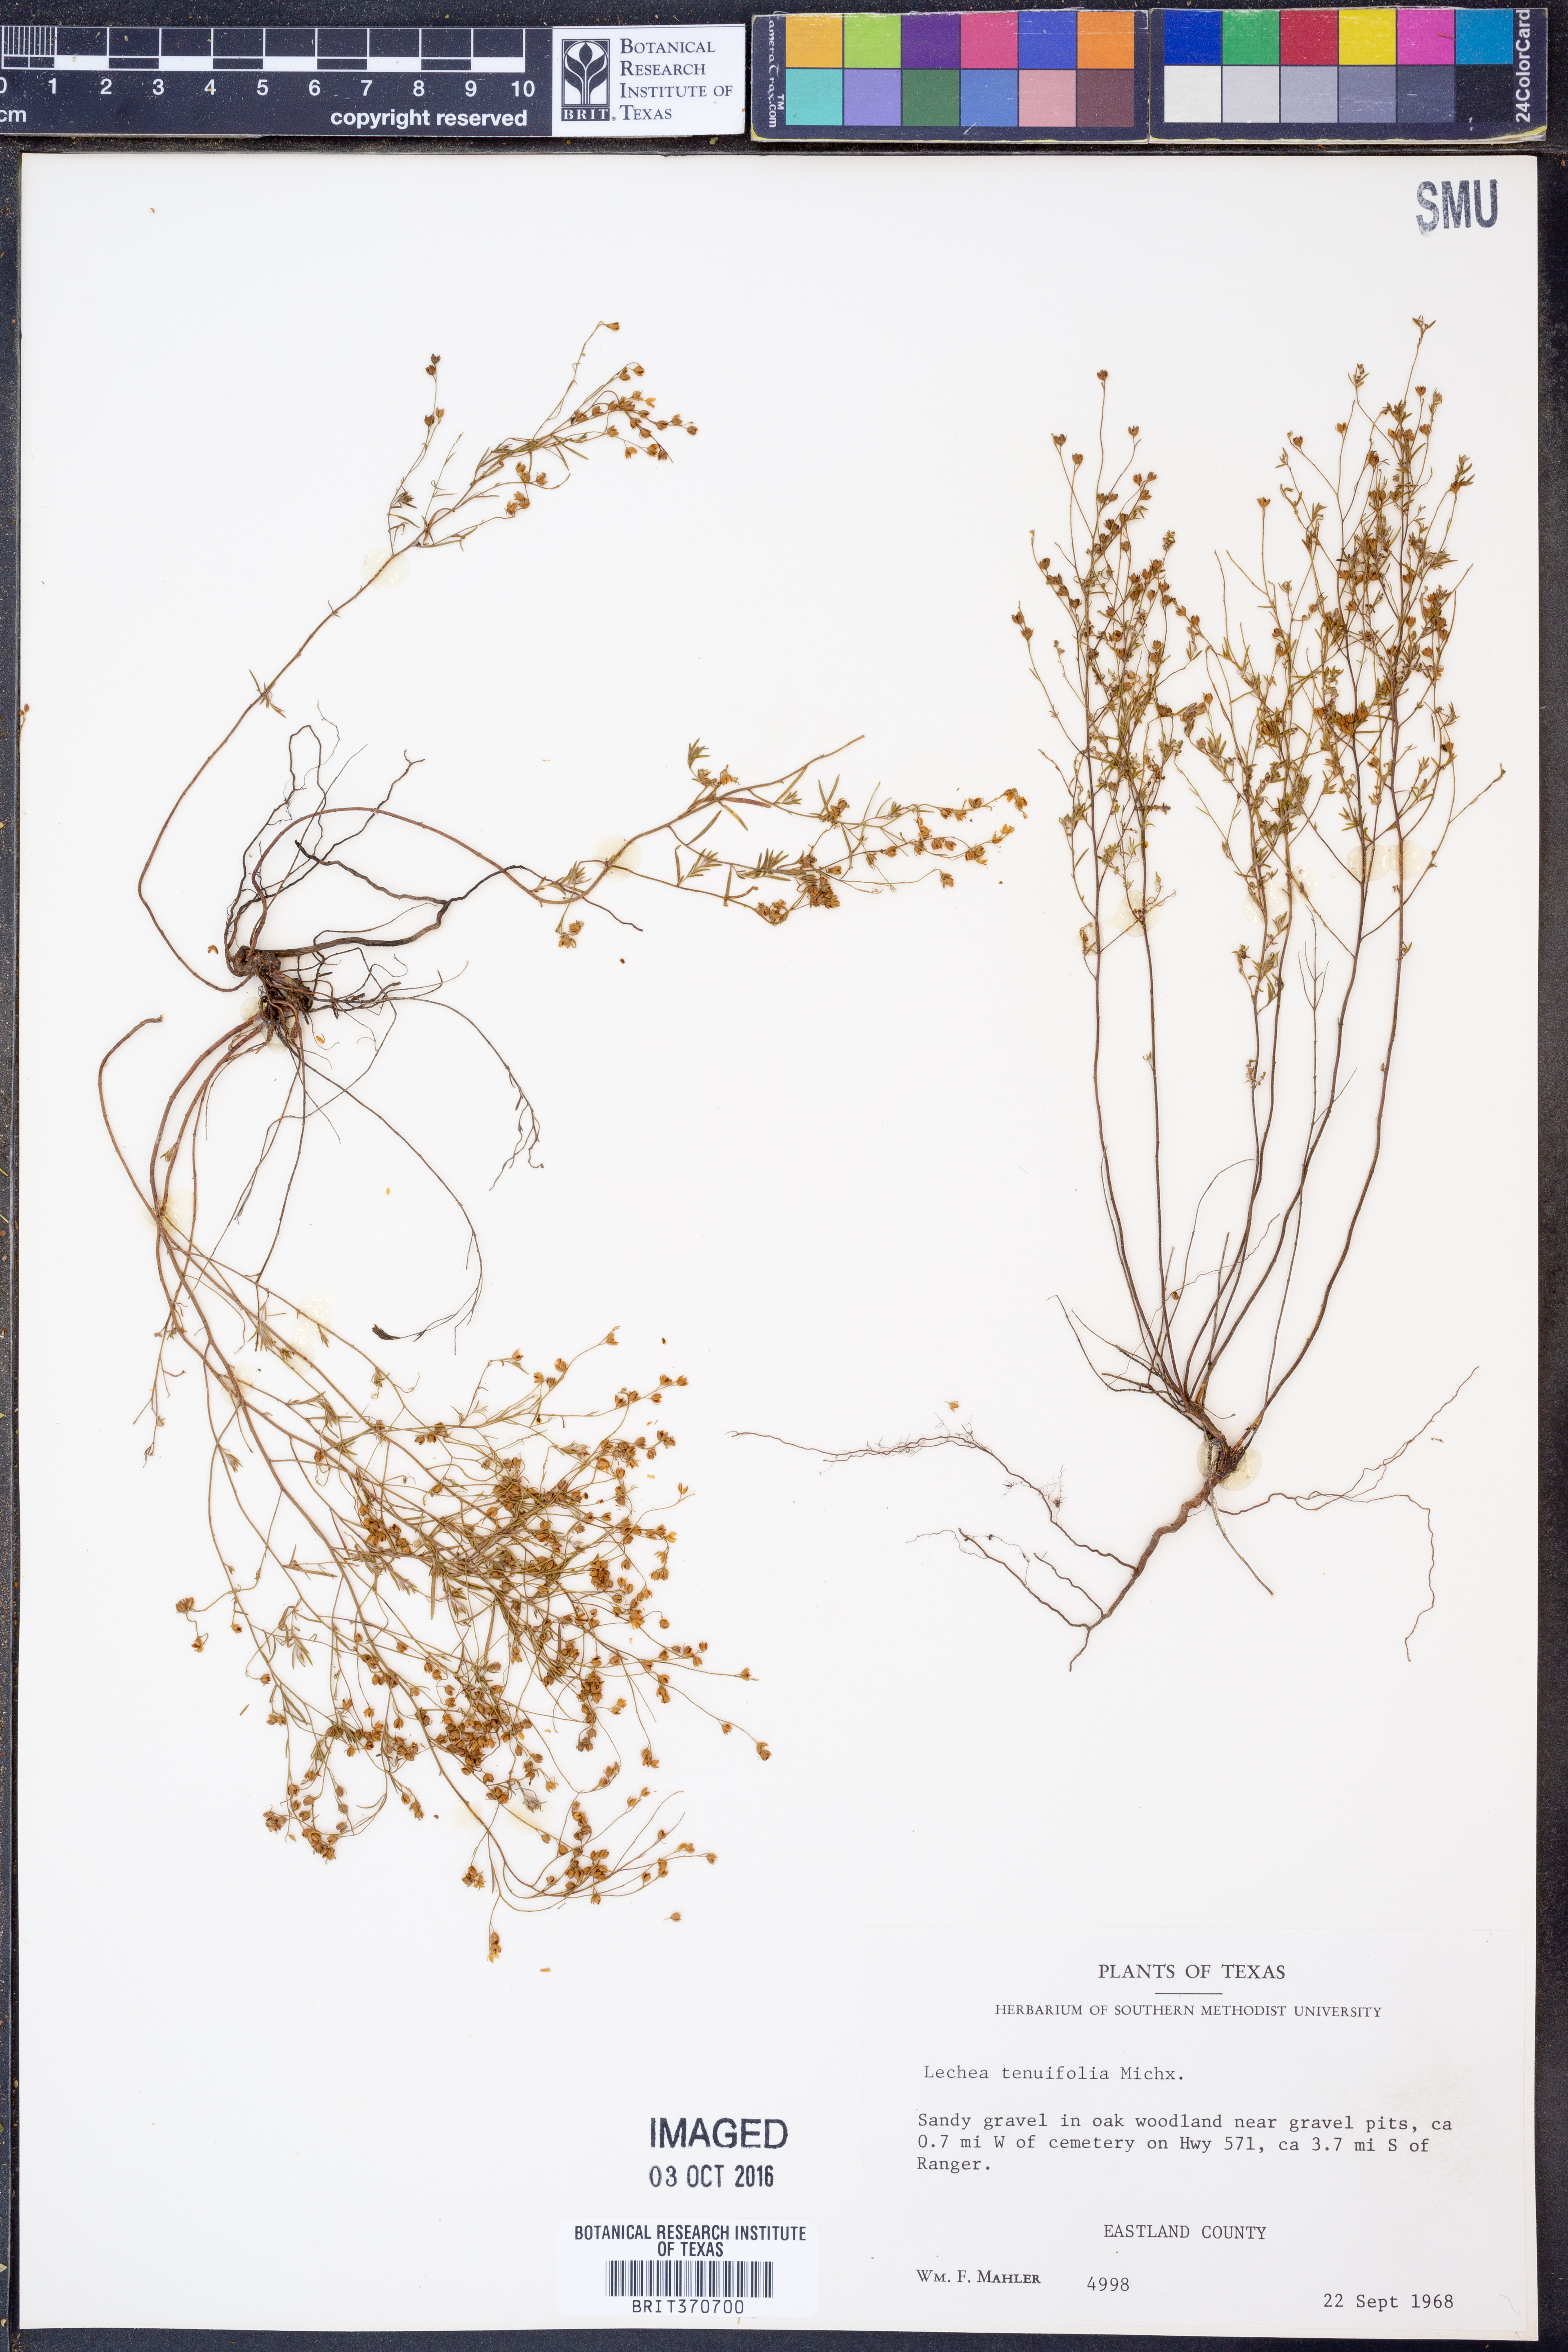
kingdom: Plantae
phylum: Tracheophyta
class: Magnoliopsida
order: Malvales
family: Cistaceae
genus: Lechea
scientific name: Lechea tenuifolia
